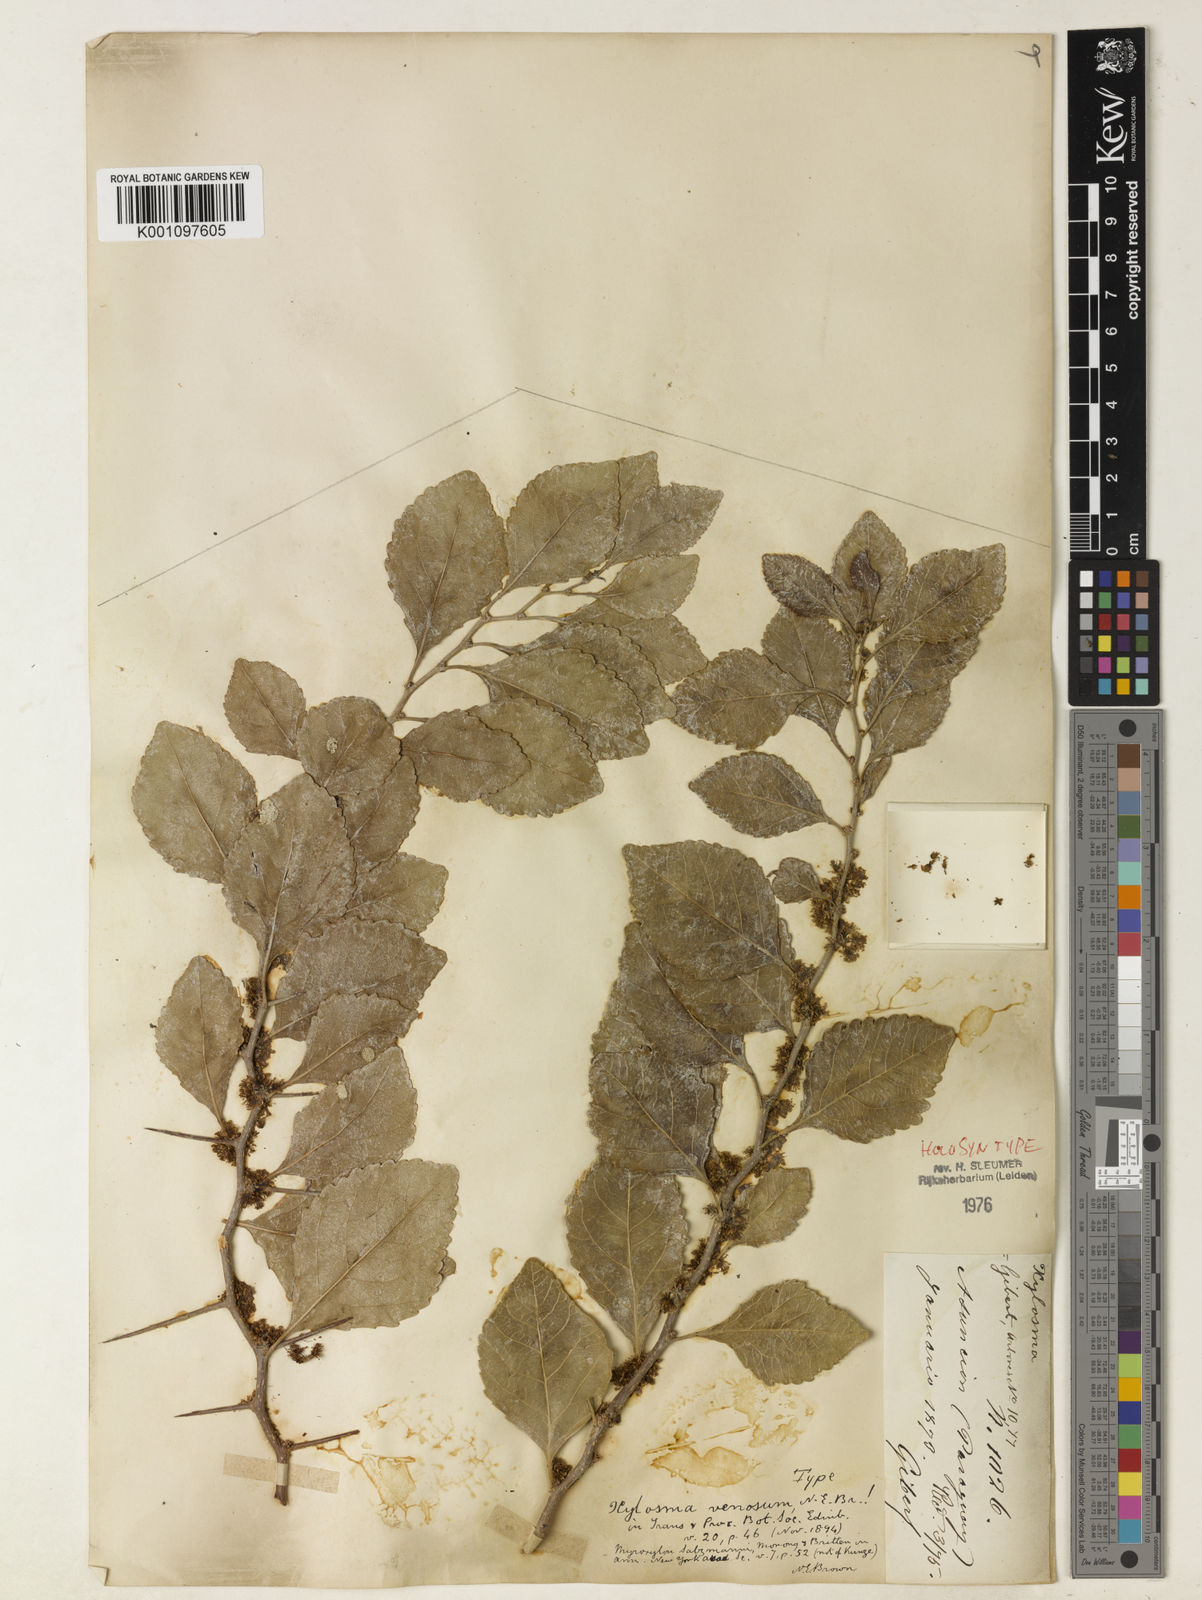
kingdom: Plantae
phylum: Tracheophyta
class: Magnoliopsida
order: Malpighiales
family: Salicaceae
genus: Xylosma
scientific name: Xylosma
